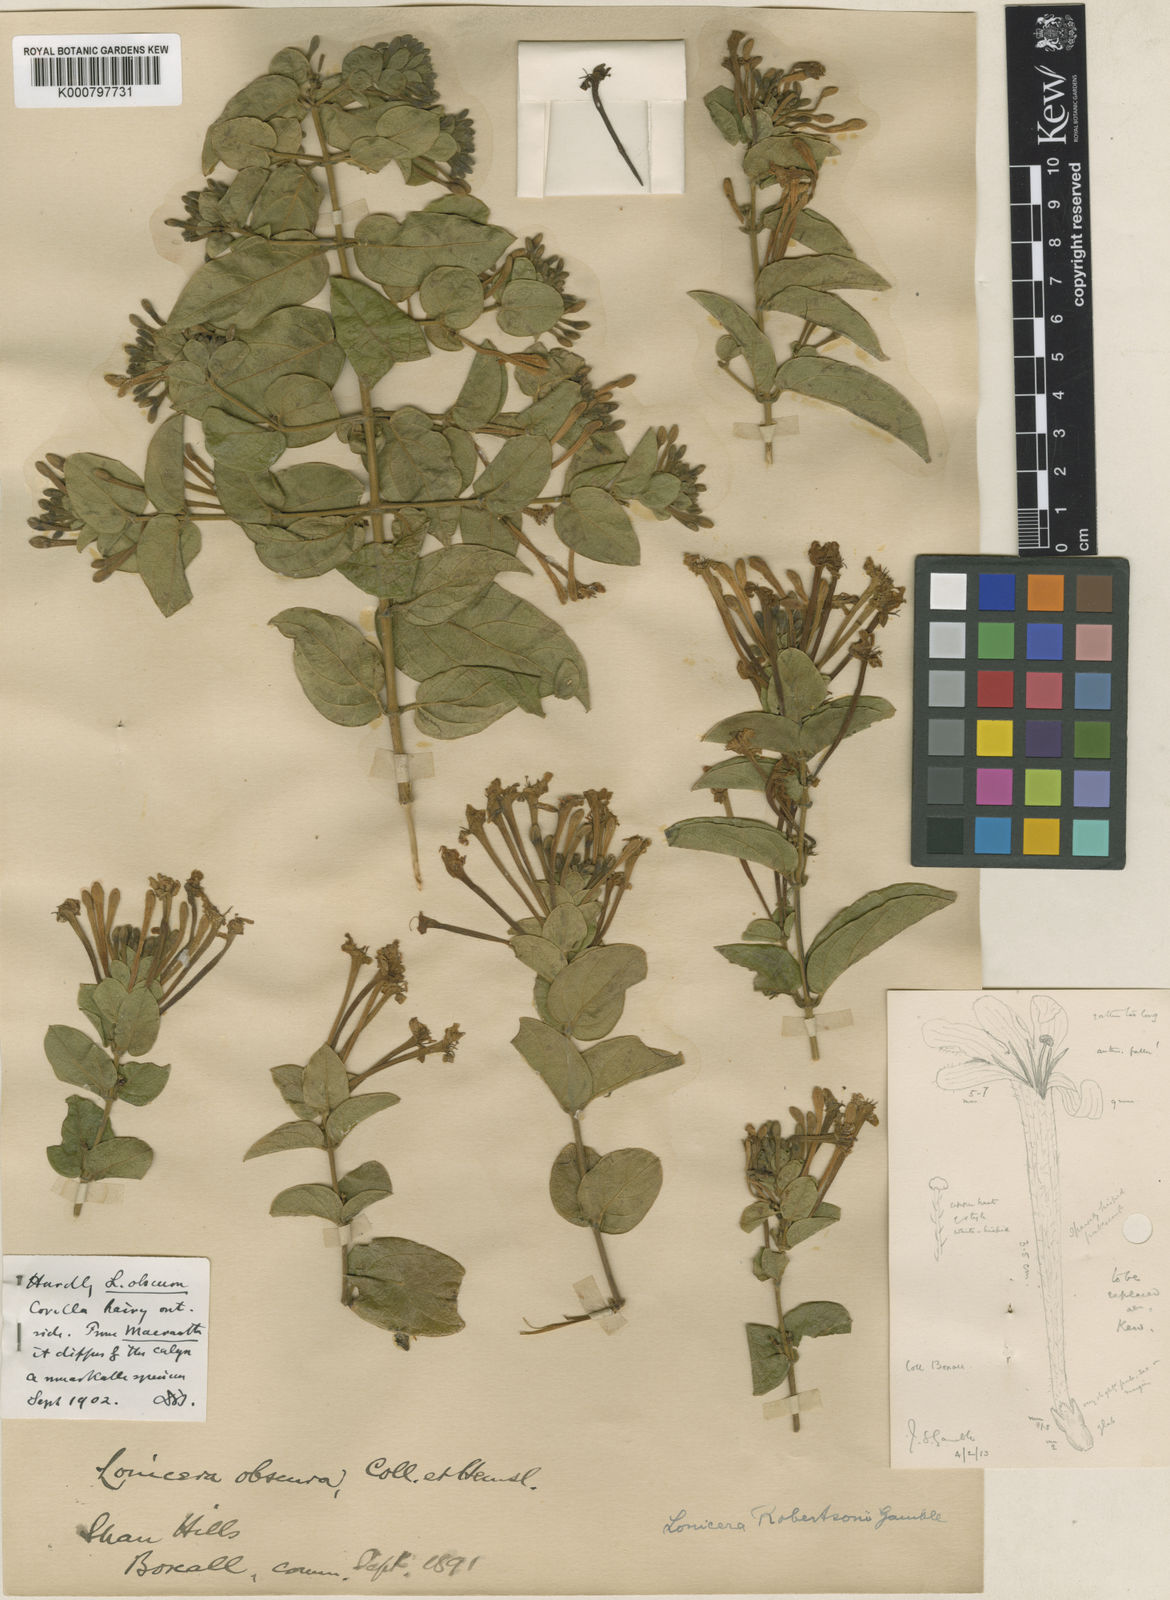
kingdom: Plantae
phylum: Tracheophyta
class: Magnoliopsida
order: Dipsacales
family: Caprifoliaceae
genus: Lonicera
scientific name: Lonicera siamensis
